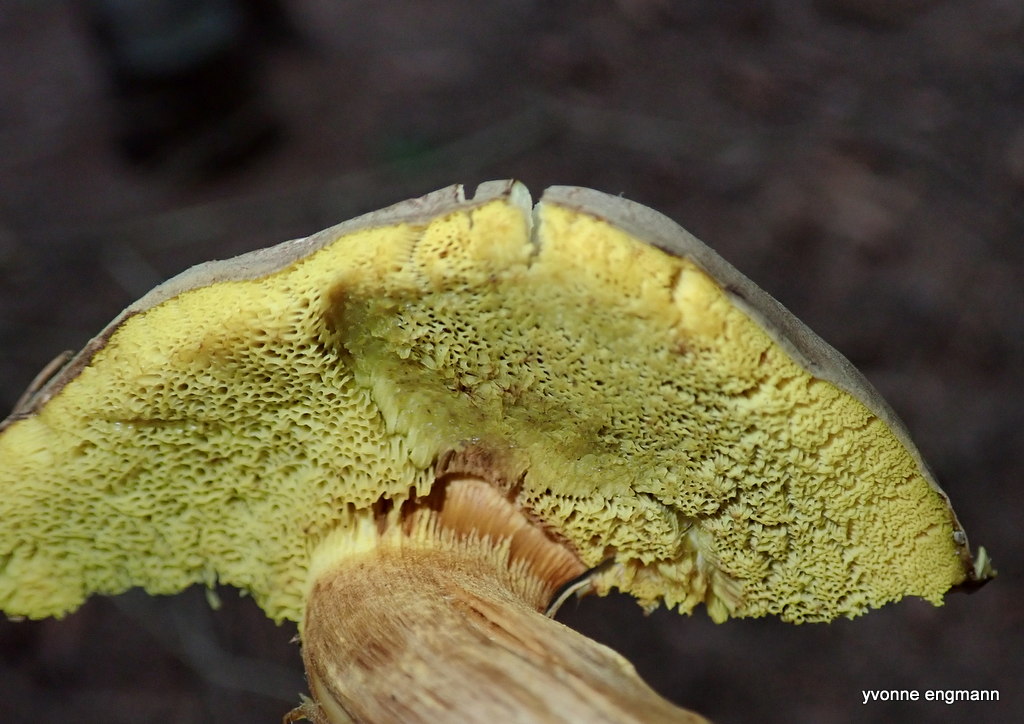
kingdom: Fungi
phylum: Basidiomycota
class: Agaricomycetes
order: Boletales
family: Boletaceae
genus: Xerocomus
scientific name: Xerocomus ferrugineus
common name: vaskeskinds-rørhat
